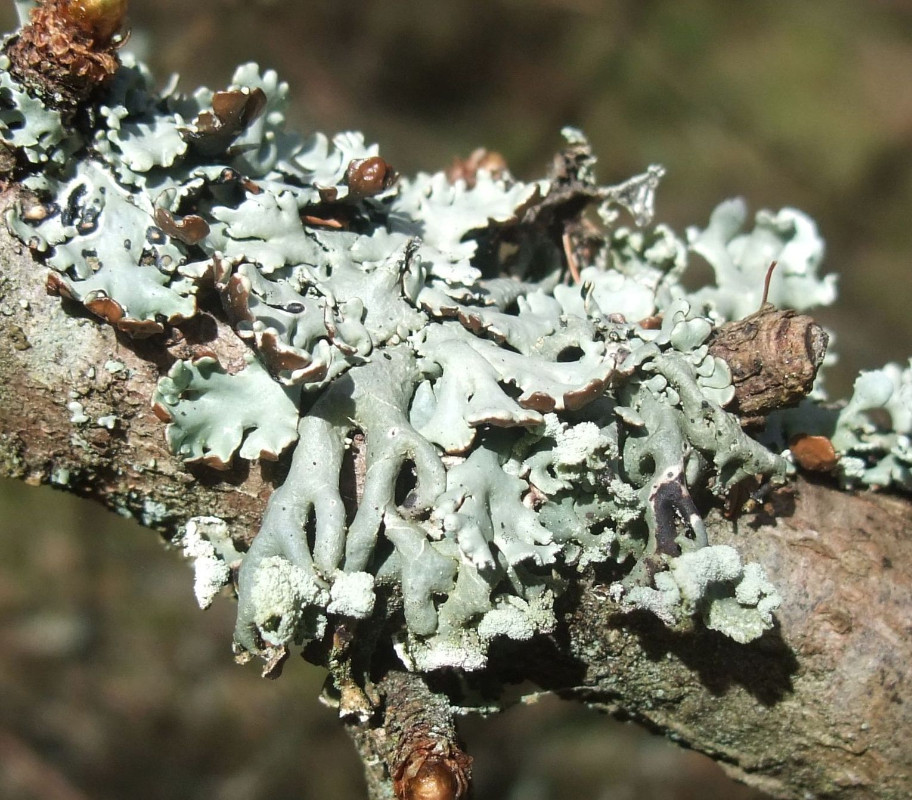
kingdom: Fungi
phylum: Ascomycota
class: Lecanoromycetes
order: Lecanorales
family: Parmeliaceae
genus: Hypogymnia
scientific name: Hypogymnia physodes
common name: almindelig kvistlav
